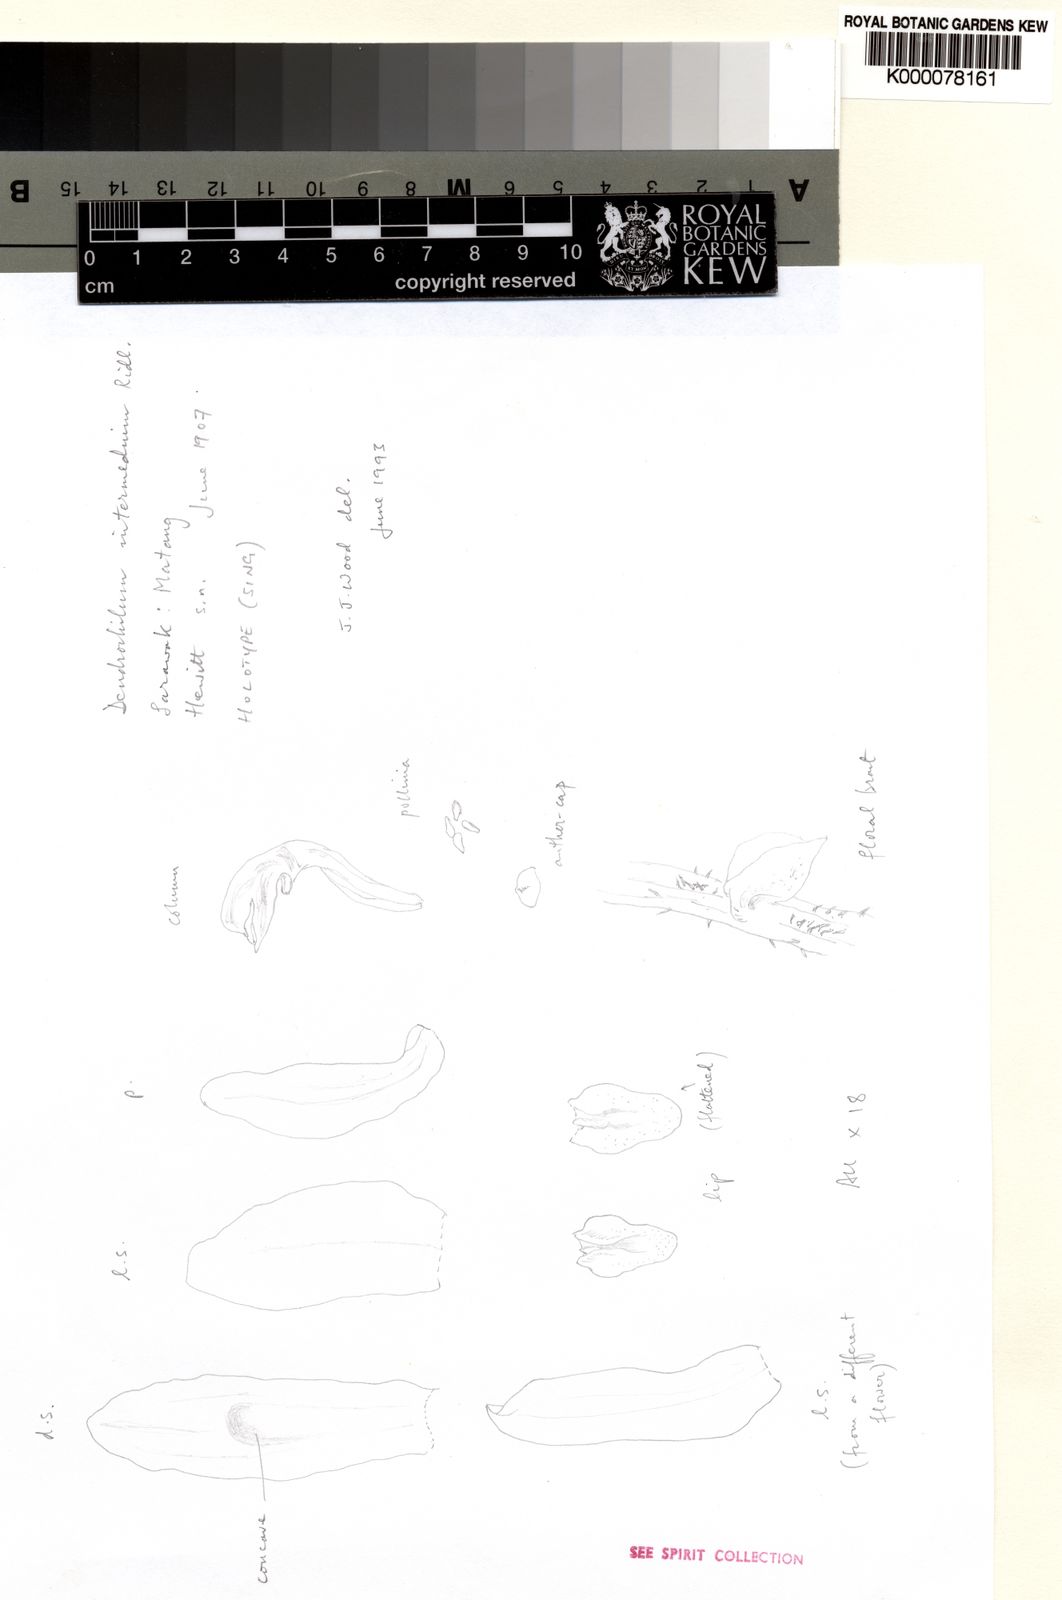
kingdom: Plantae
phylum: Tracheophyta
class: Liliopsida
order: Asparagales
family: Orchidaceae
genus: Coelogyne
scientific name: Coelogyne pallidiflavens
